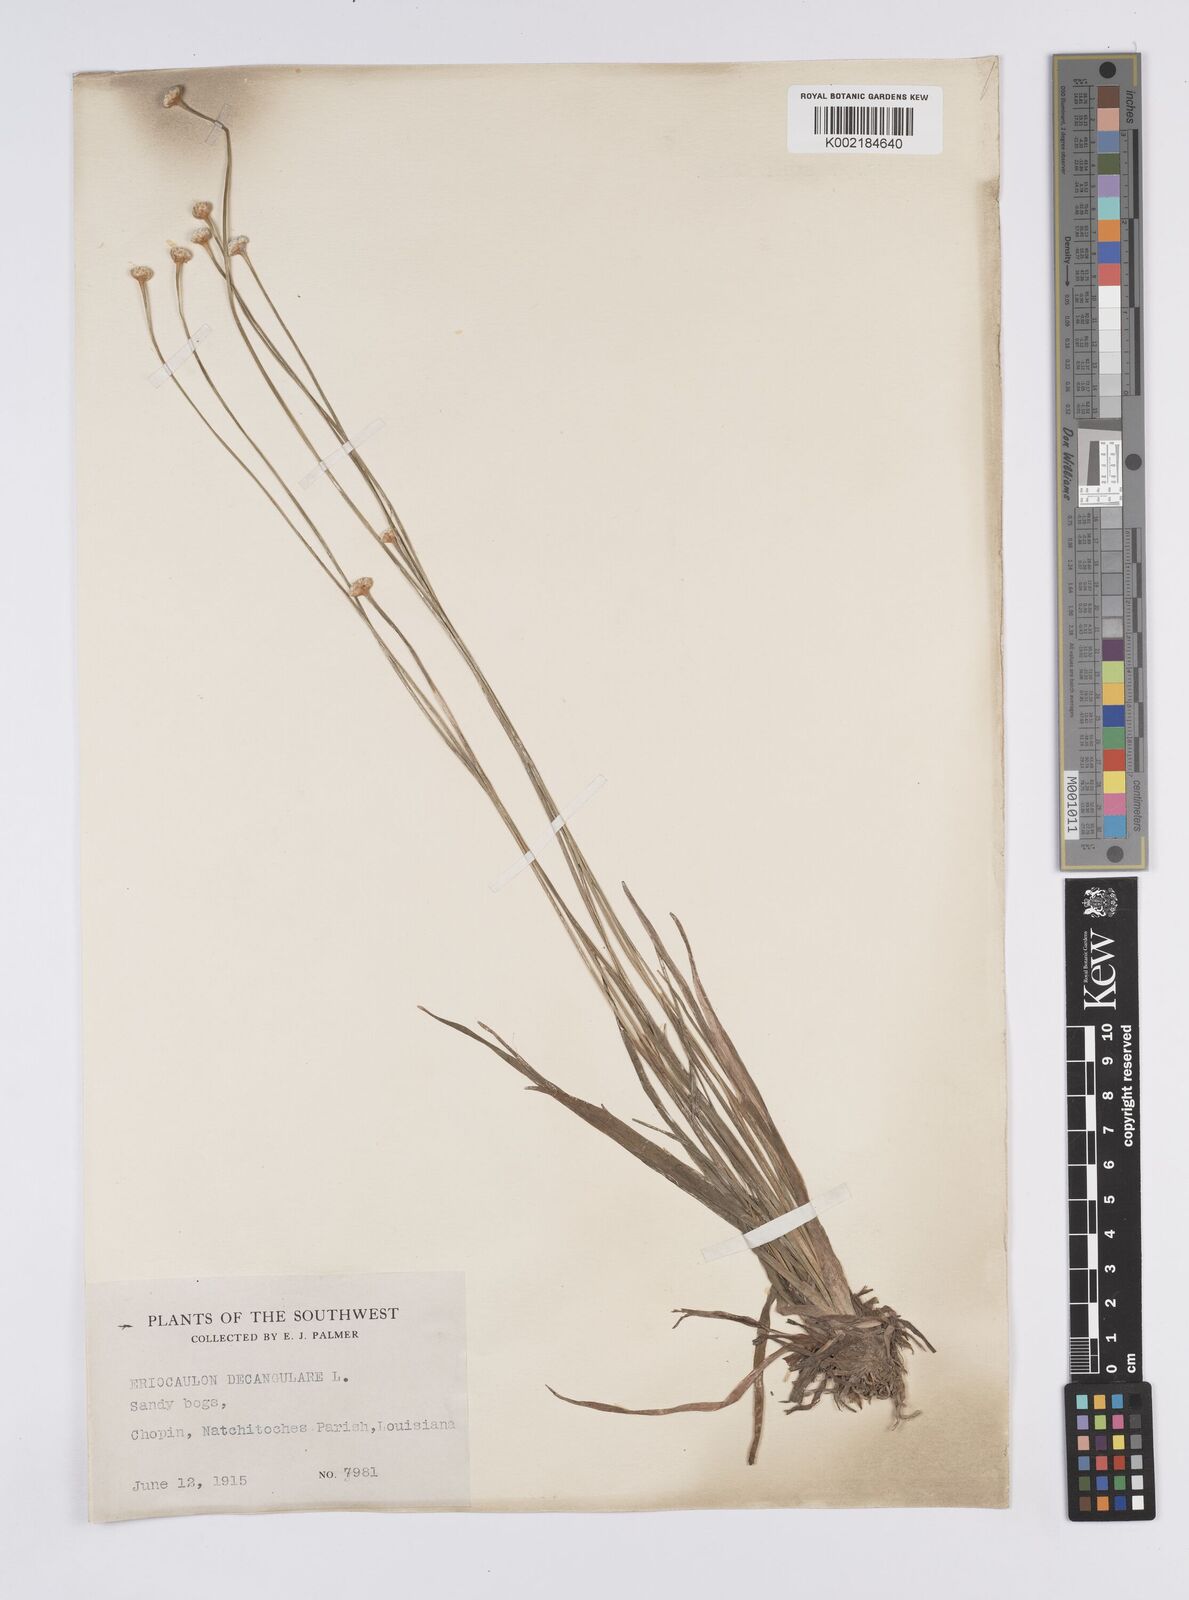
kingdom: Plantae
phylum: Tracheophyta
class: Liliopsida
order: Poales
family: Eriocaulaceae
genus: Eriocaulon
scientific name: Eriocaulon decangulare
